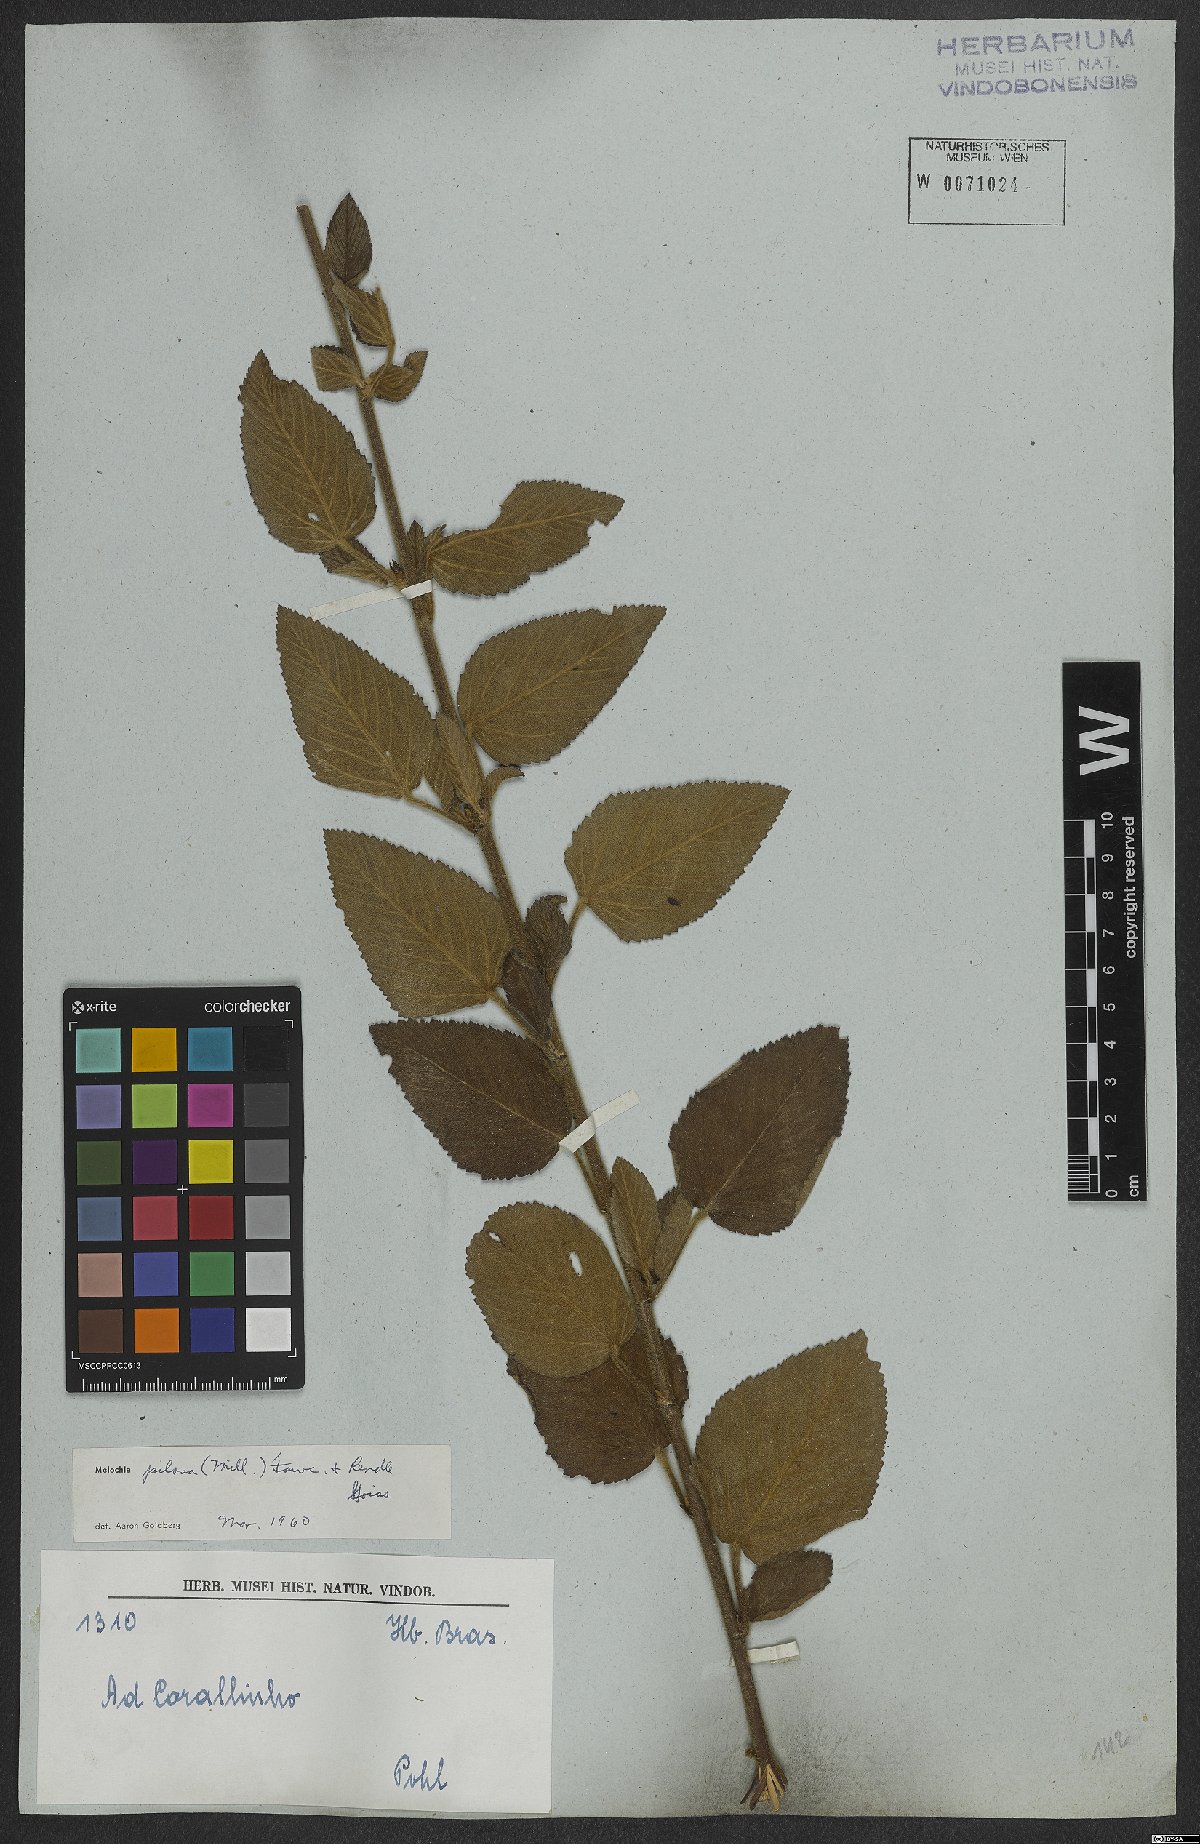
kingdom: Plantae
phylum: Tracheophyta
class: Magnoliopsida
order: Malvales
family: Malvaceae
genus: Melochia
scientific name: Melochia pilosa
